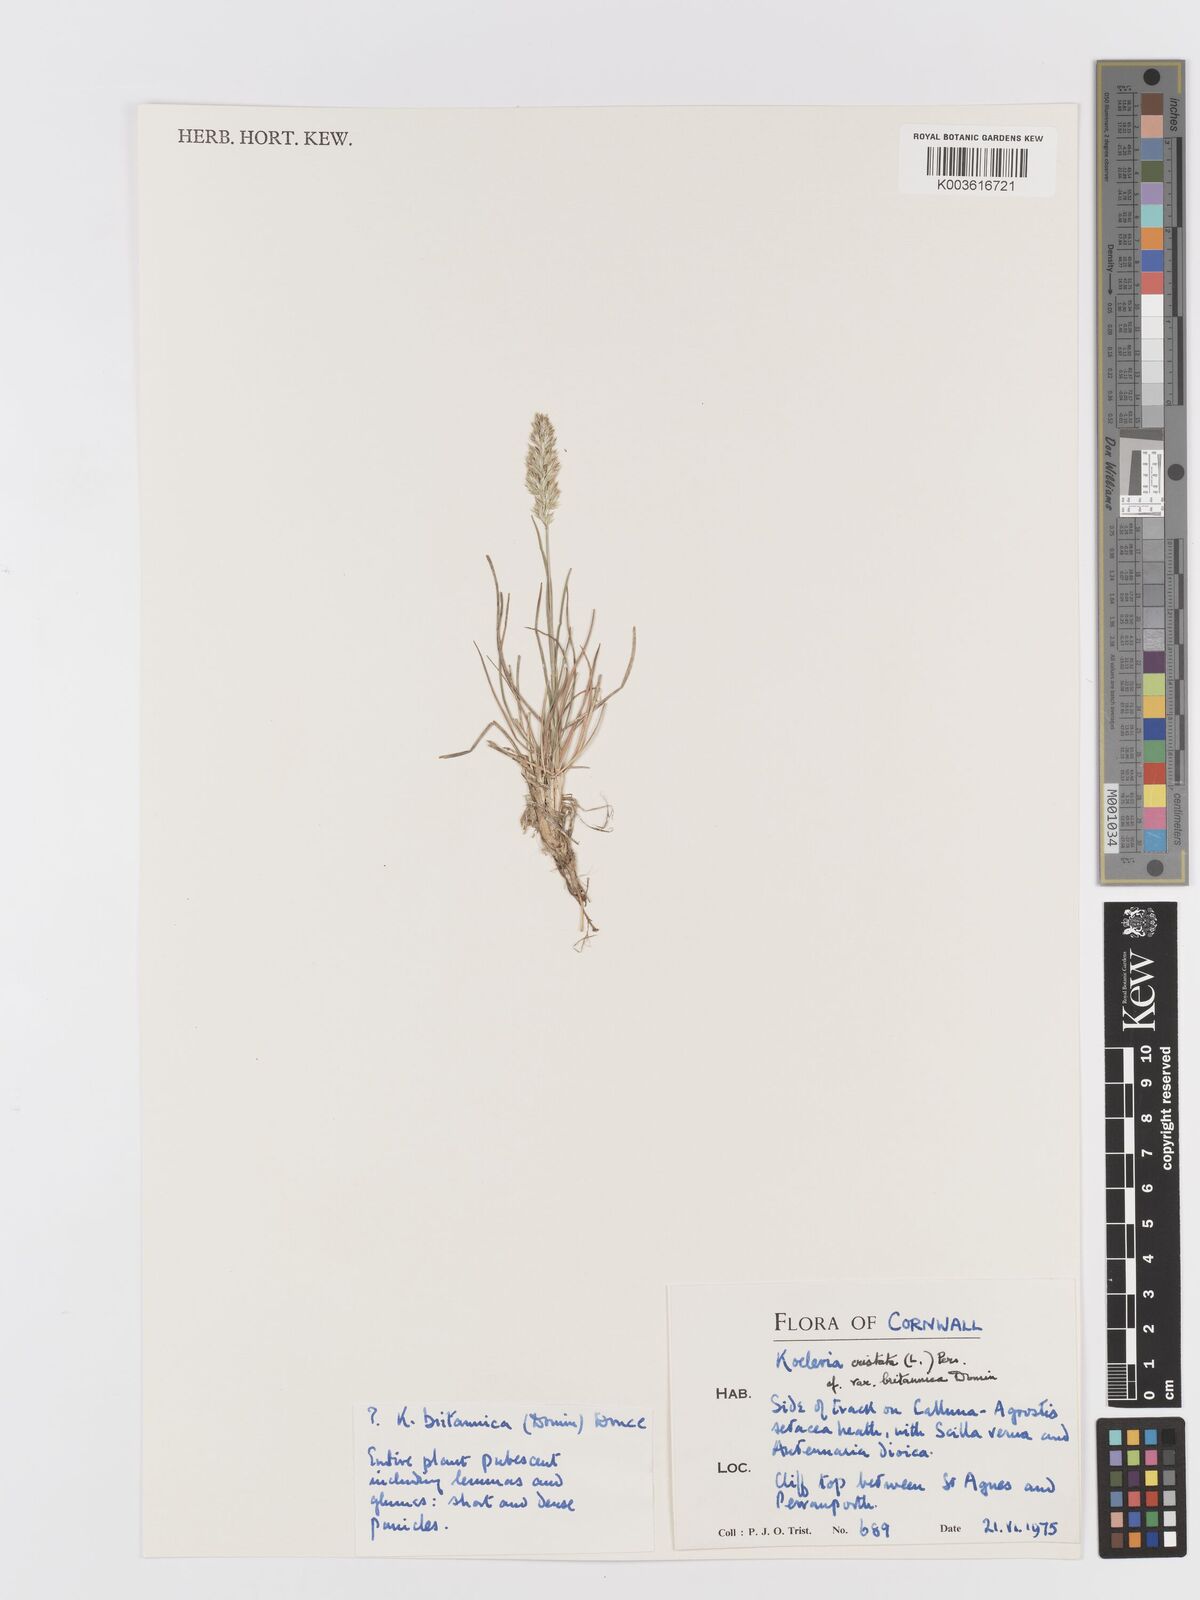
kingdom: Plantae
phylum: Tracheophyta
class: Liliopsida
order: Poales
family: Poaceae
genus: Koeleria
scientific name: Koeleria
